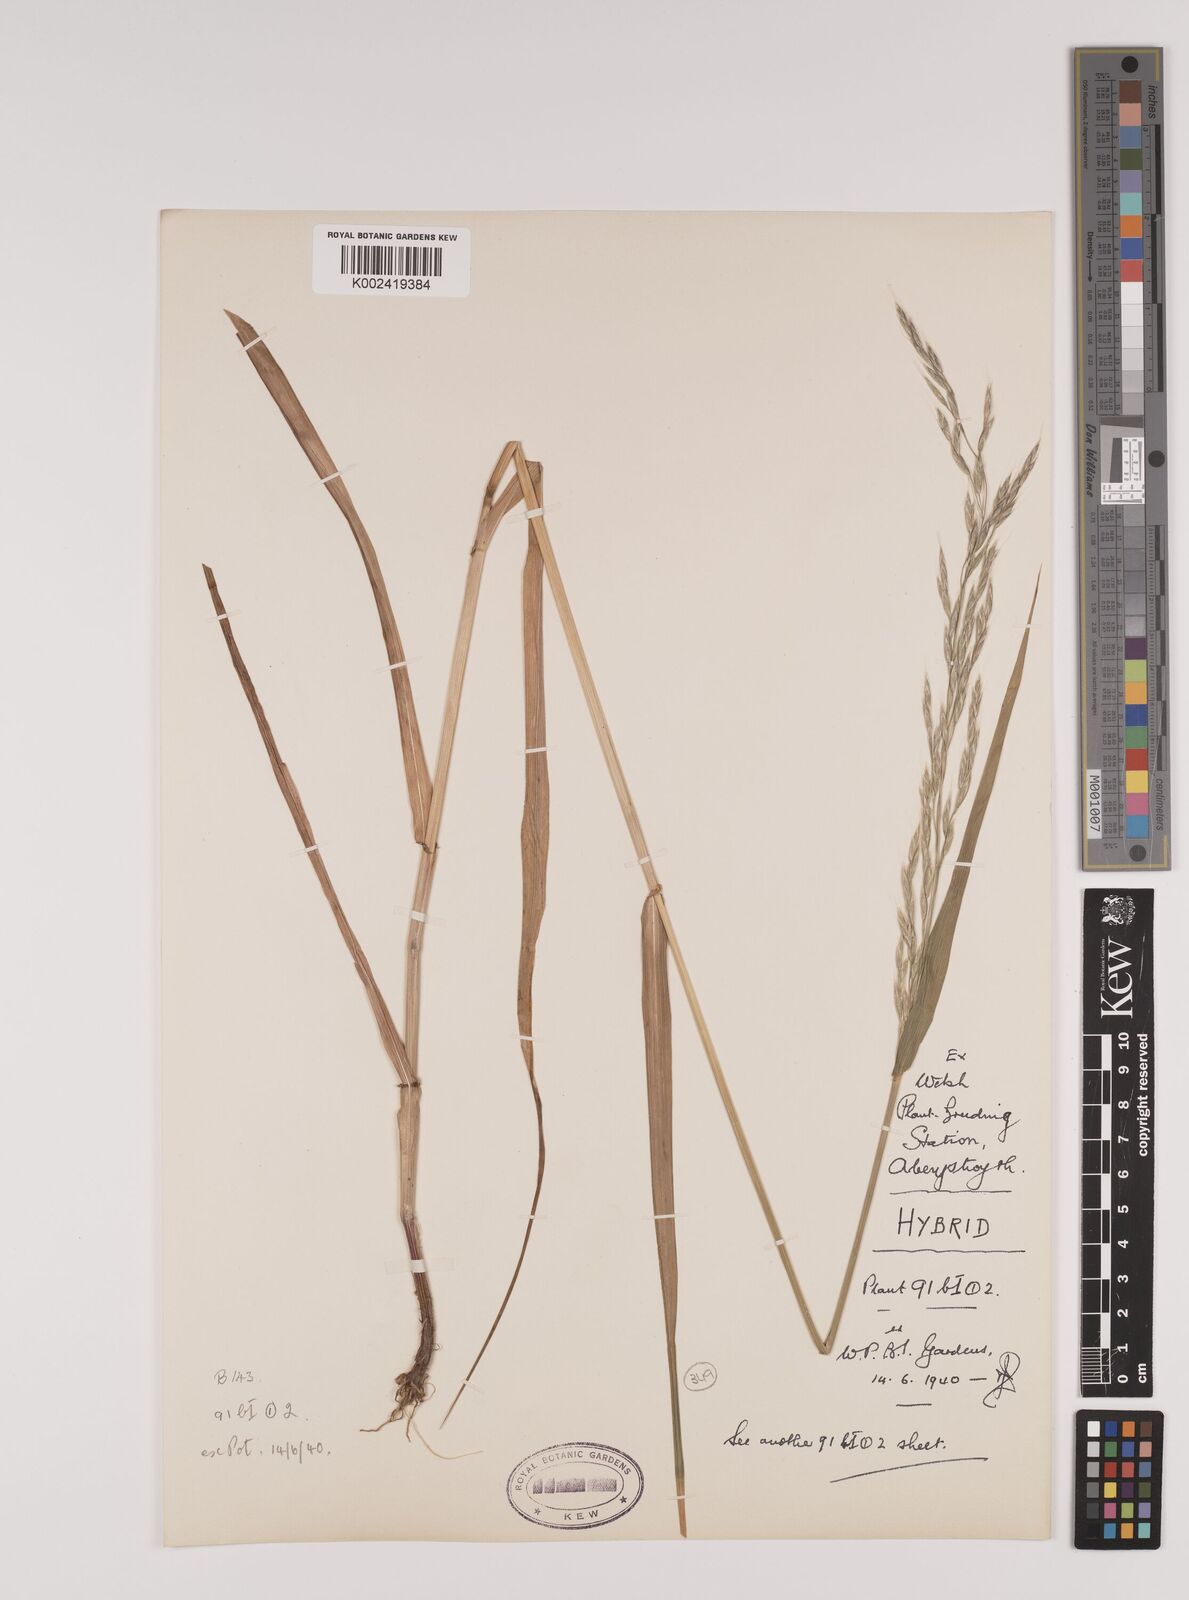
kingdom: Plantae
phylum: Tracheophyta
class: Liliopsida
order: Poales
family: Poaceae
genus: Lolium
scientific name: Lolium giganteum
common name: Giant fescue
